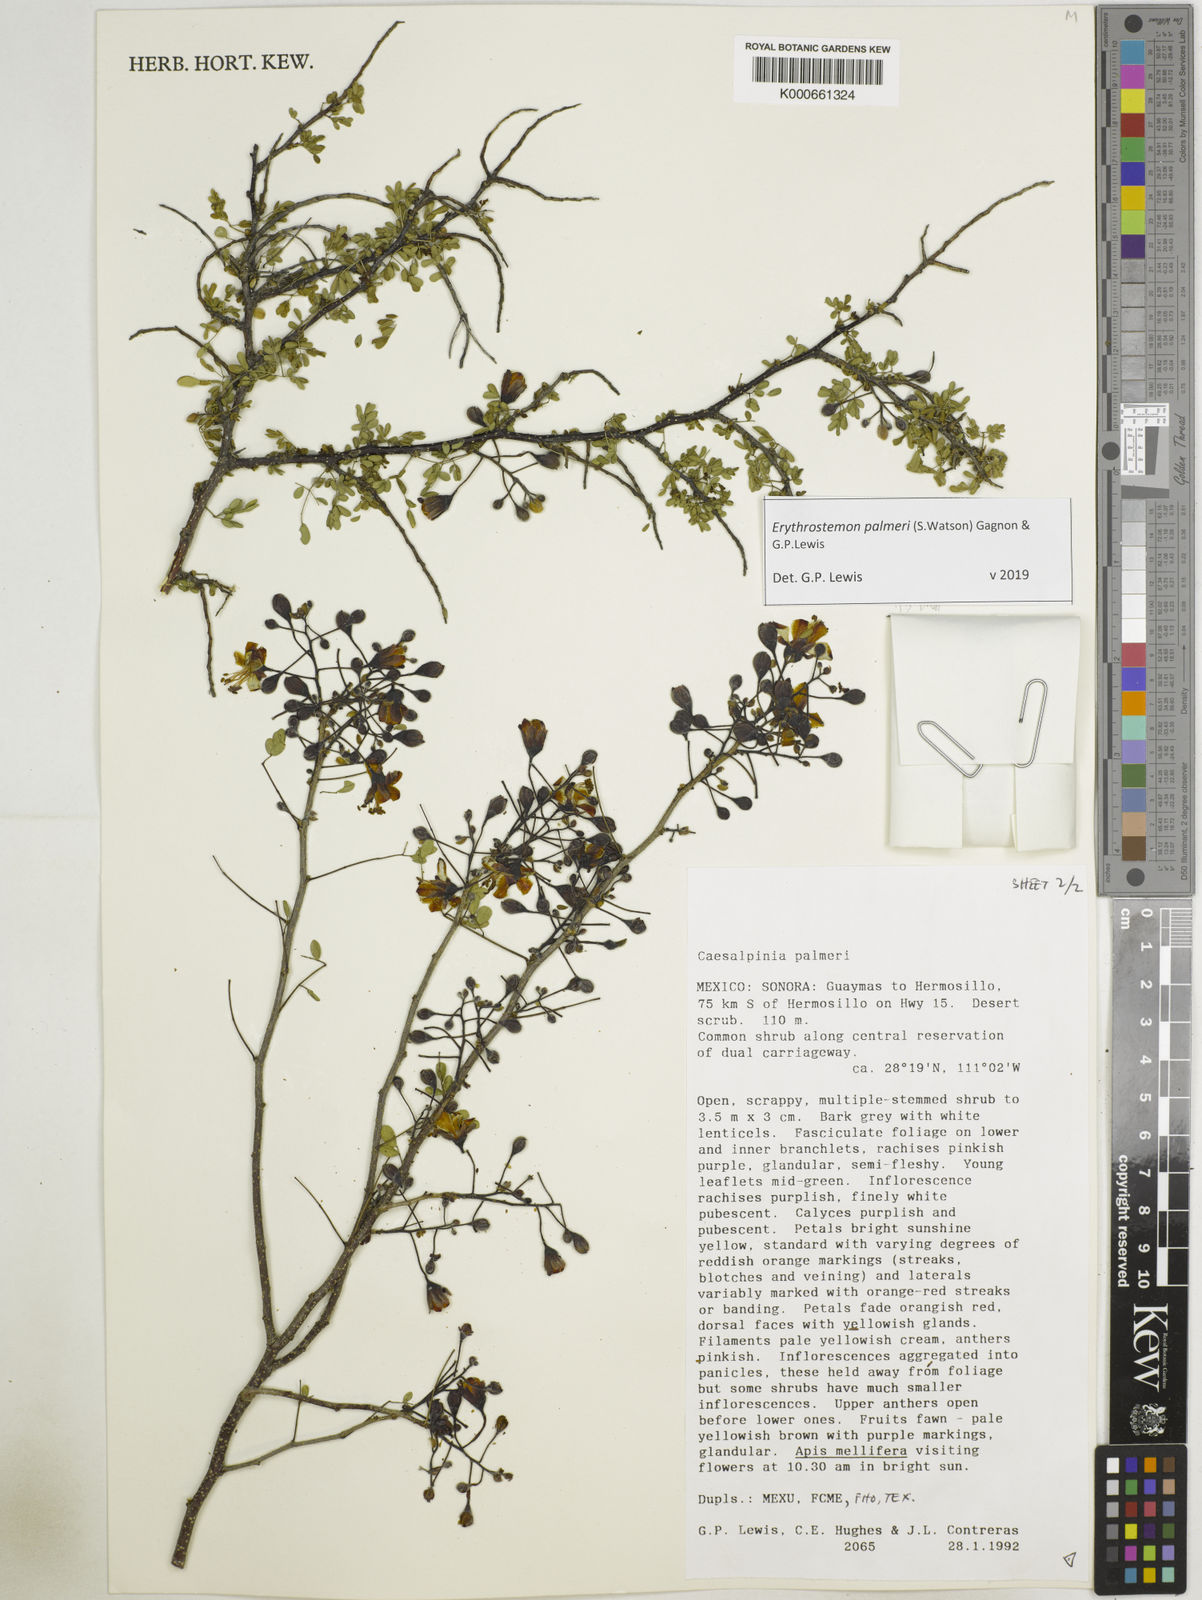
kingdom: Plantae
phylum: Tracheophyta
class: Magnoliopsida
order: Fabales
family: Fabaceae
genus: Erythrostemon
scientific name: Erythrostemon palmeri
